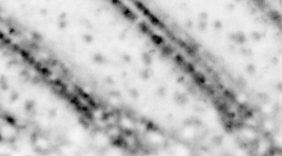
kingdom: Animalia
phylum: Chordata
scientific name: Chordata
